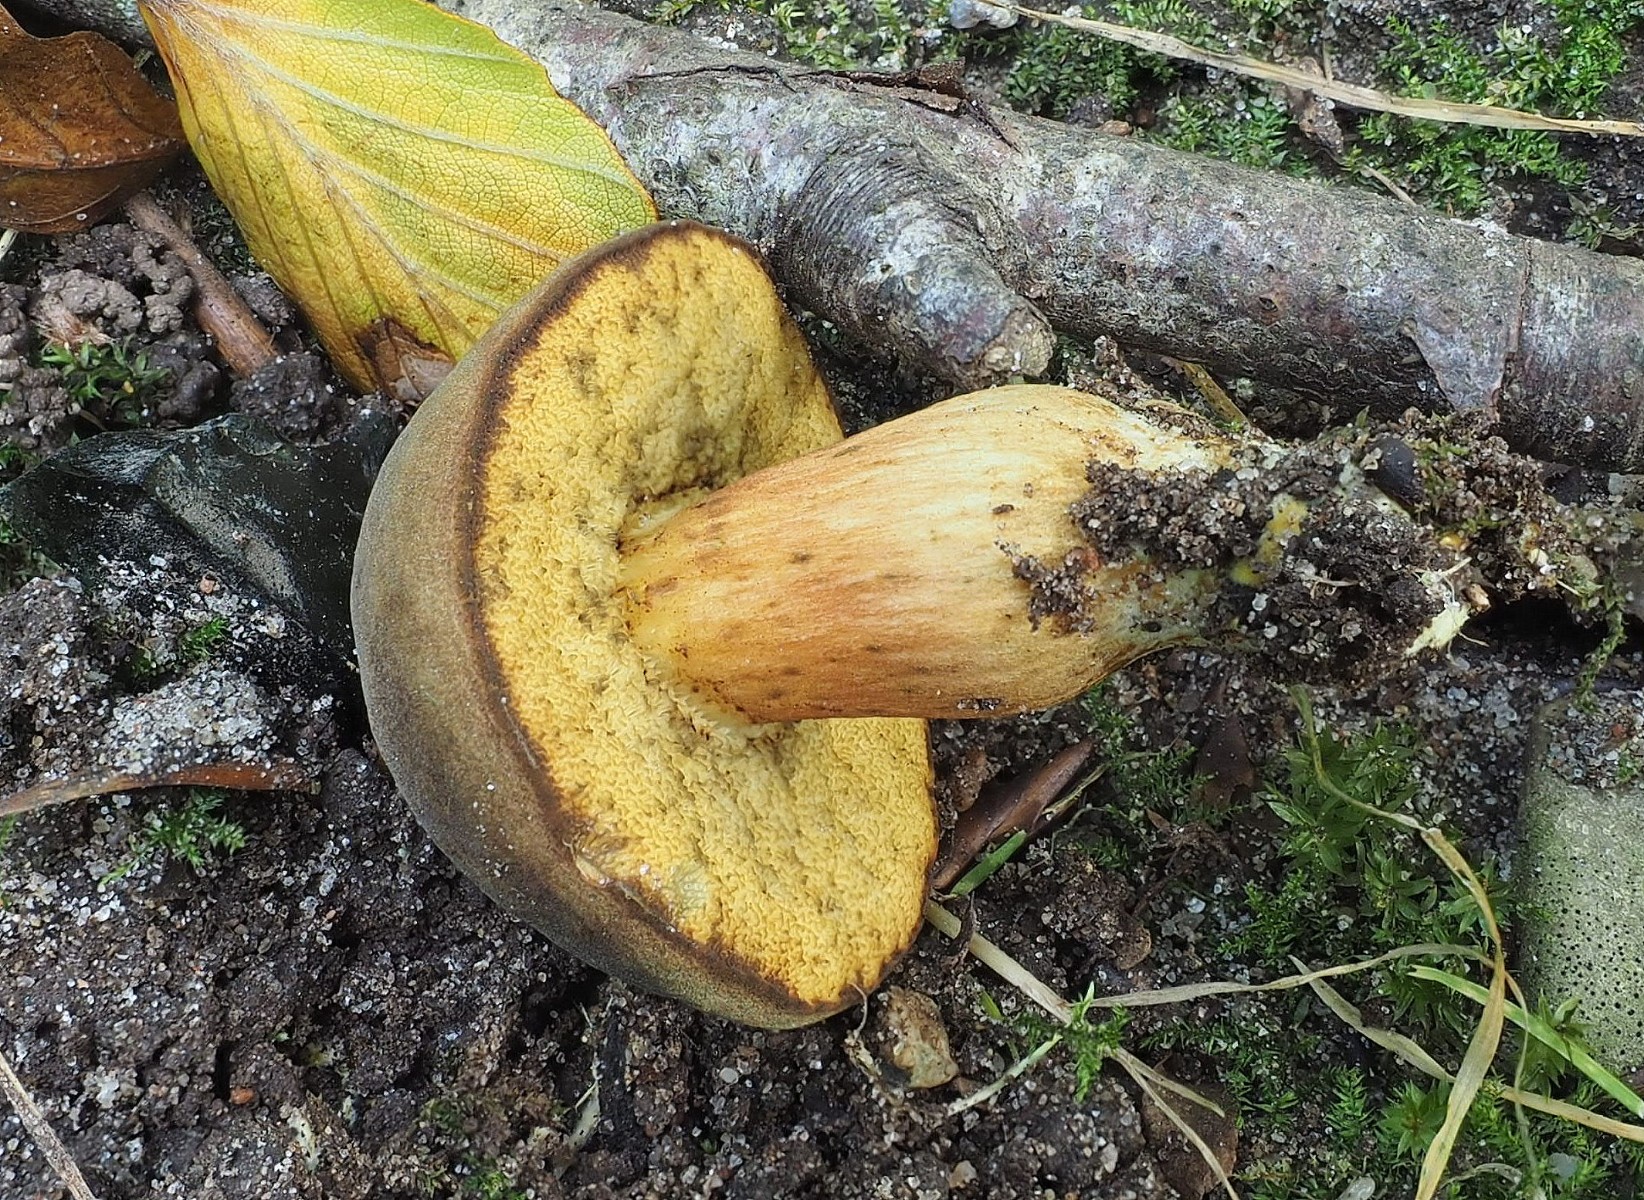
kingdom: Fungi
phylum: Basidiomycota
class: Agaricomycetes
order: Boletales
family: Boletaceae
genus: Xerocomus
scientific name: Xerocomus
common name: filtrørhat
